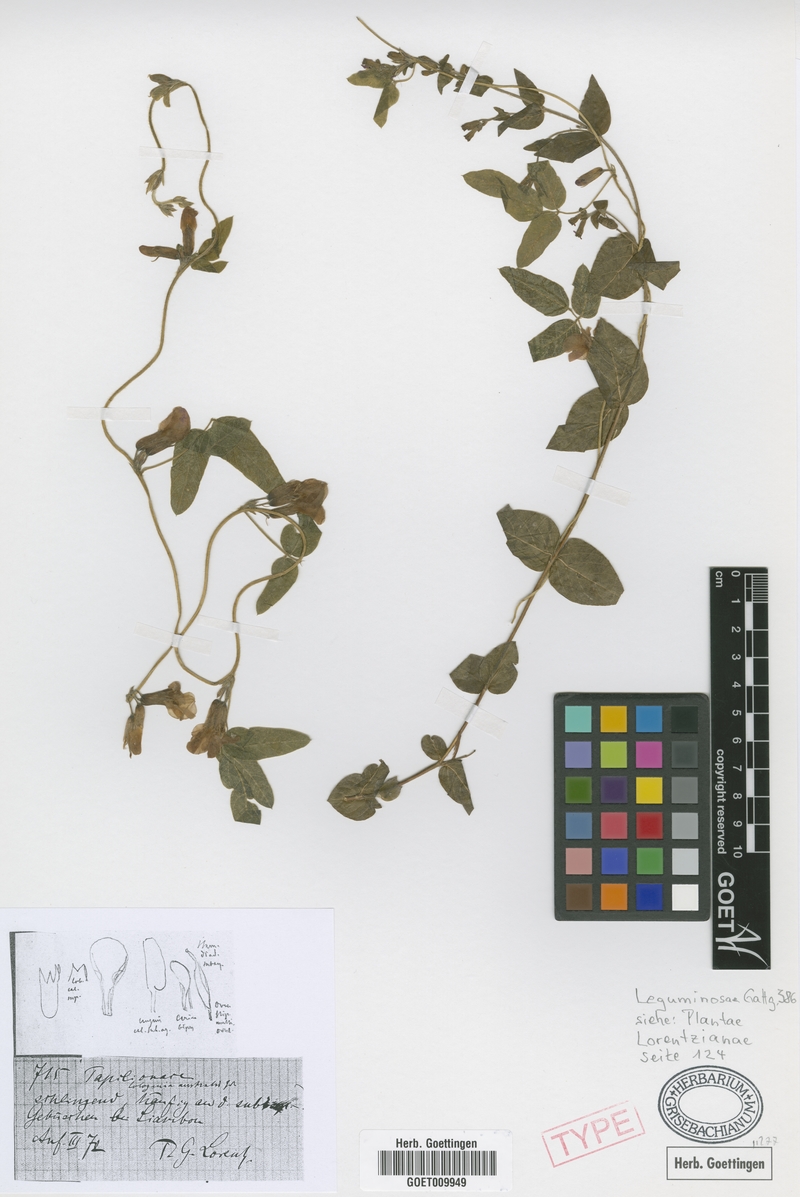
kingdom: Plantae
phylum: Tracheophyta
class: Magnoliopsida
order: Fabales
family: Fabaceae
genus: Cologania
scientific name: Cologania broussonetii
